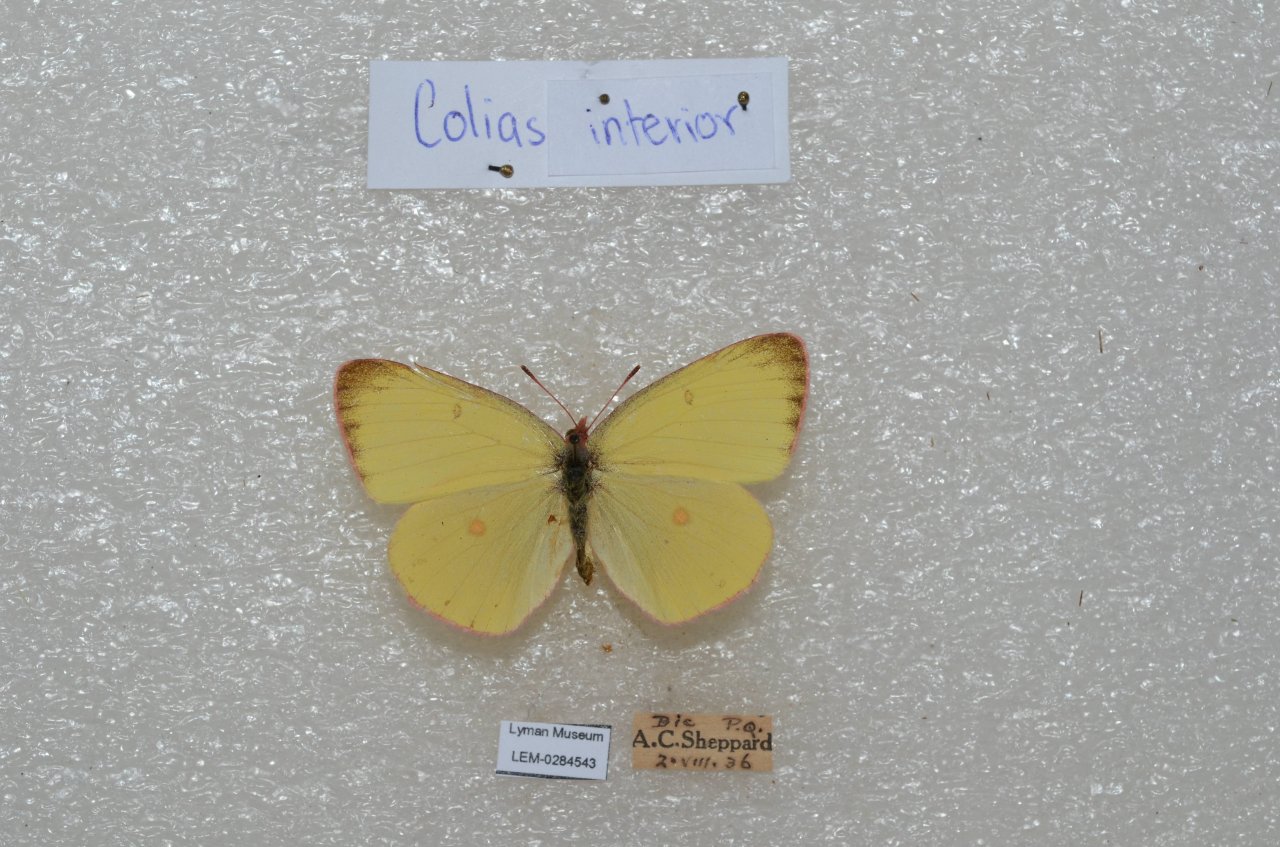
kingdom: Animalia
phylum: Arthropoda
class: Insecta
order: Lepidoptera
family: Pieridae
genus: Colias
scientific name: Colias interior
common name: Pink-edged Sulphur
